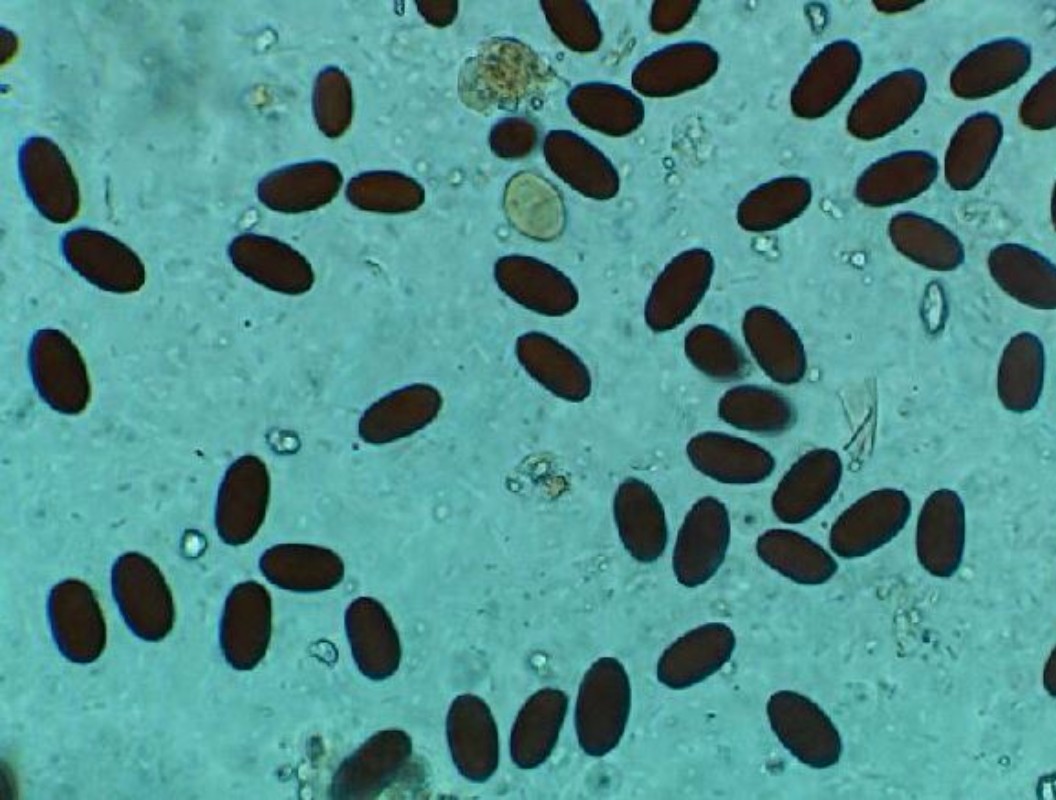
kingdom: Fungi
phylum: Basidiomycota
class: Agaricomycetes
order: Agaricales
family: Psathyrellaceae
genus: Coprinopsis
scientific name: Coprinopsis luteocephala
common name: gullig blækhat
